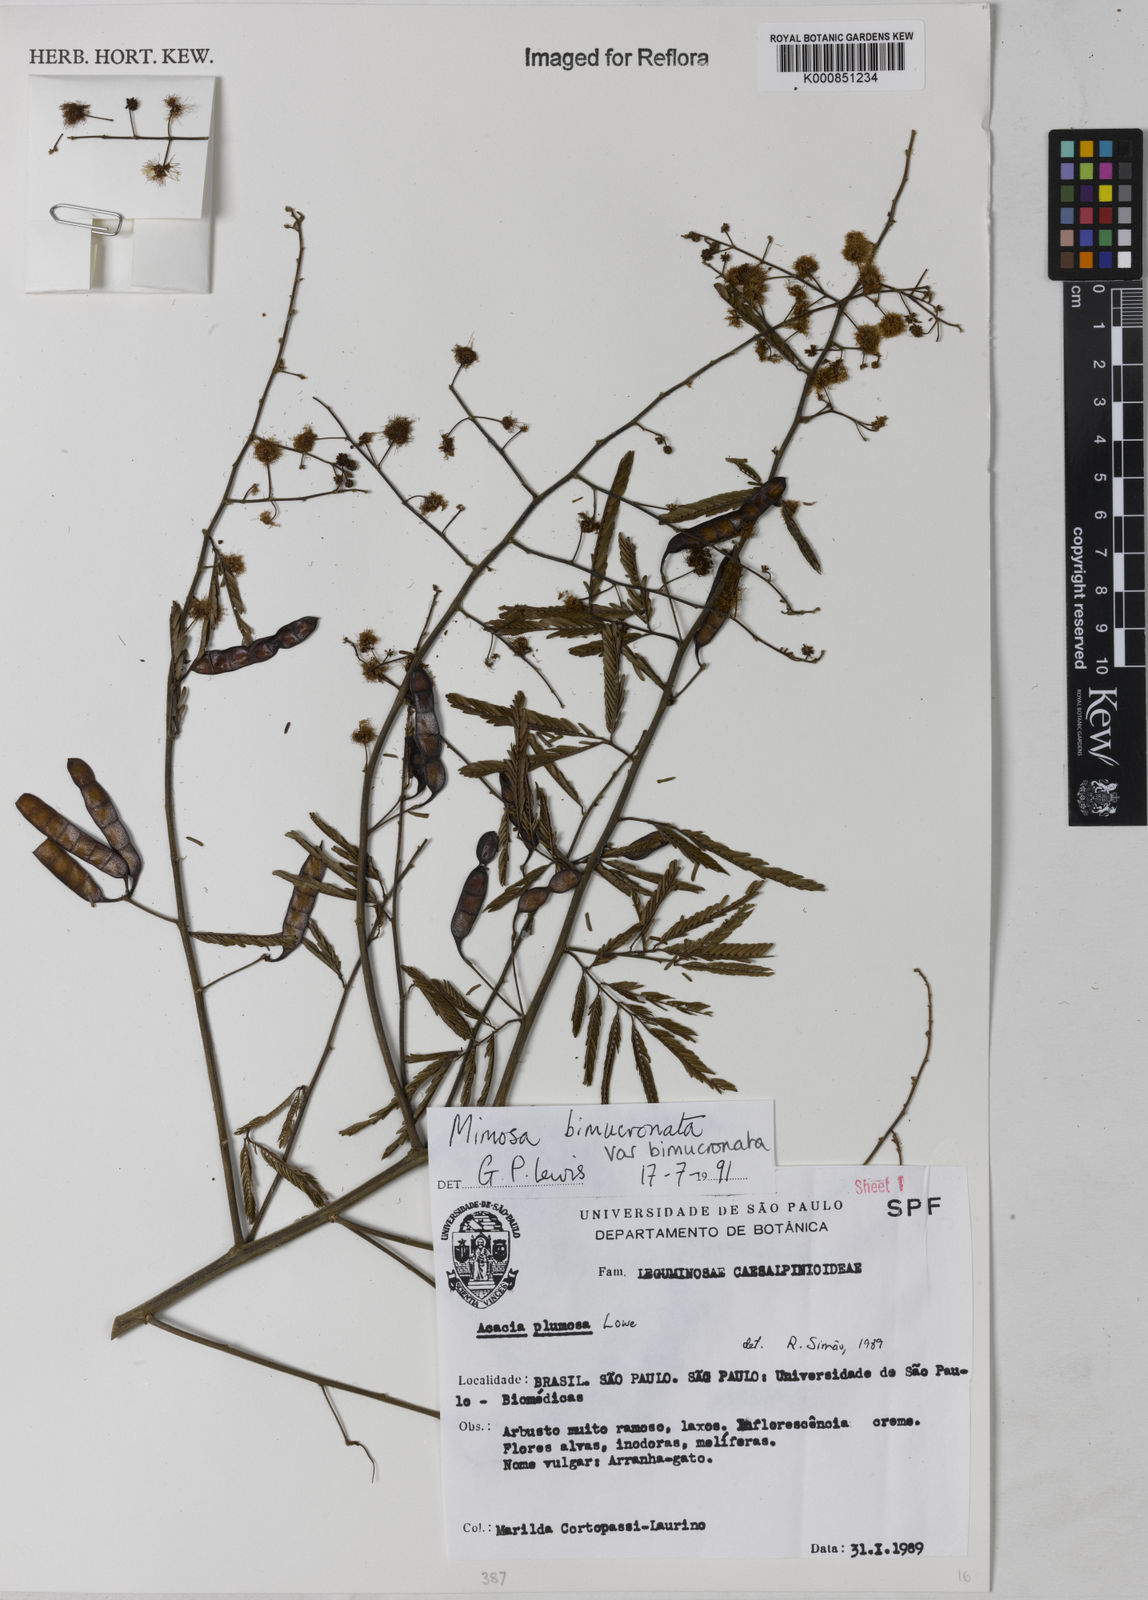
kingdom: Plantae
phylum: Tracheophyta
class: Magnoliopsida
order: Fabales
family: Fabaceae
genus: Mimosa
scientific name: Mimosa bimucronata
